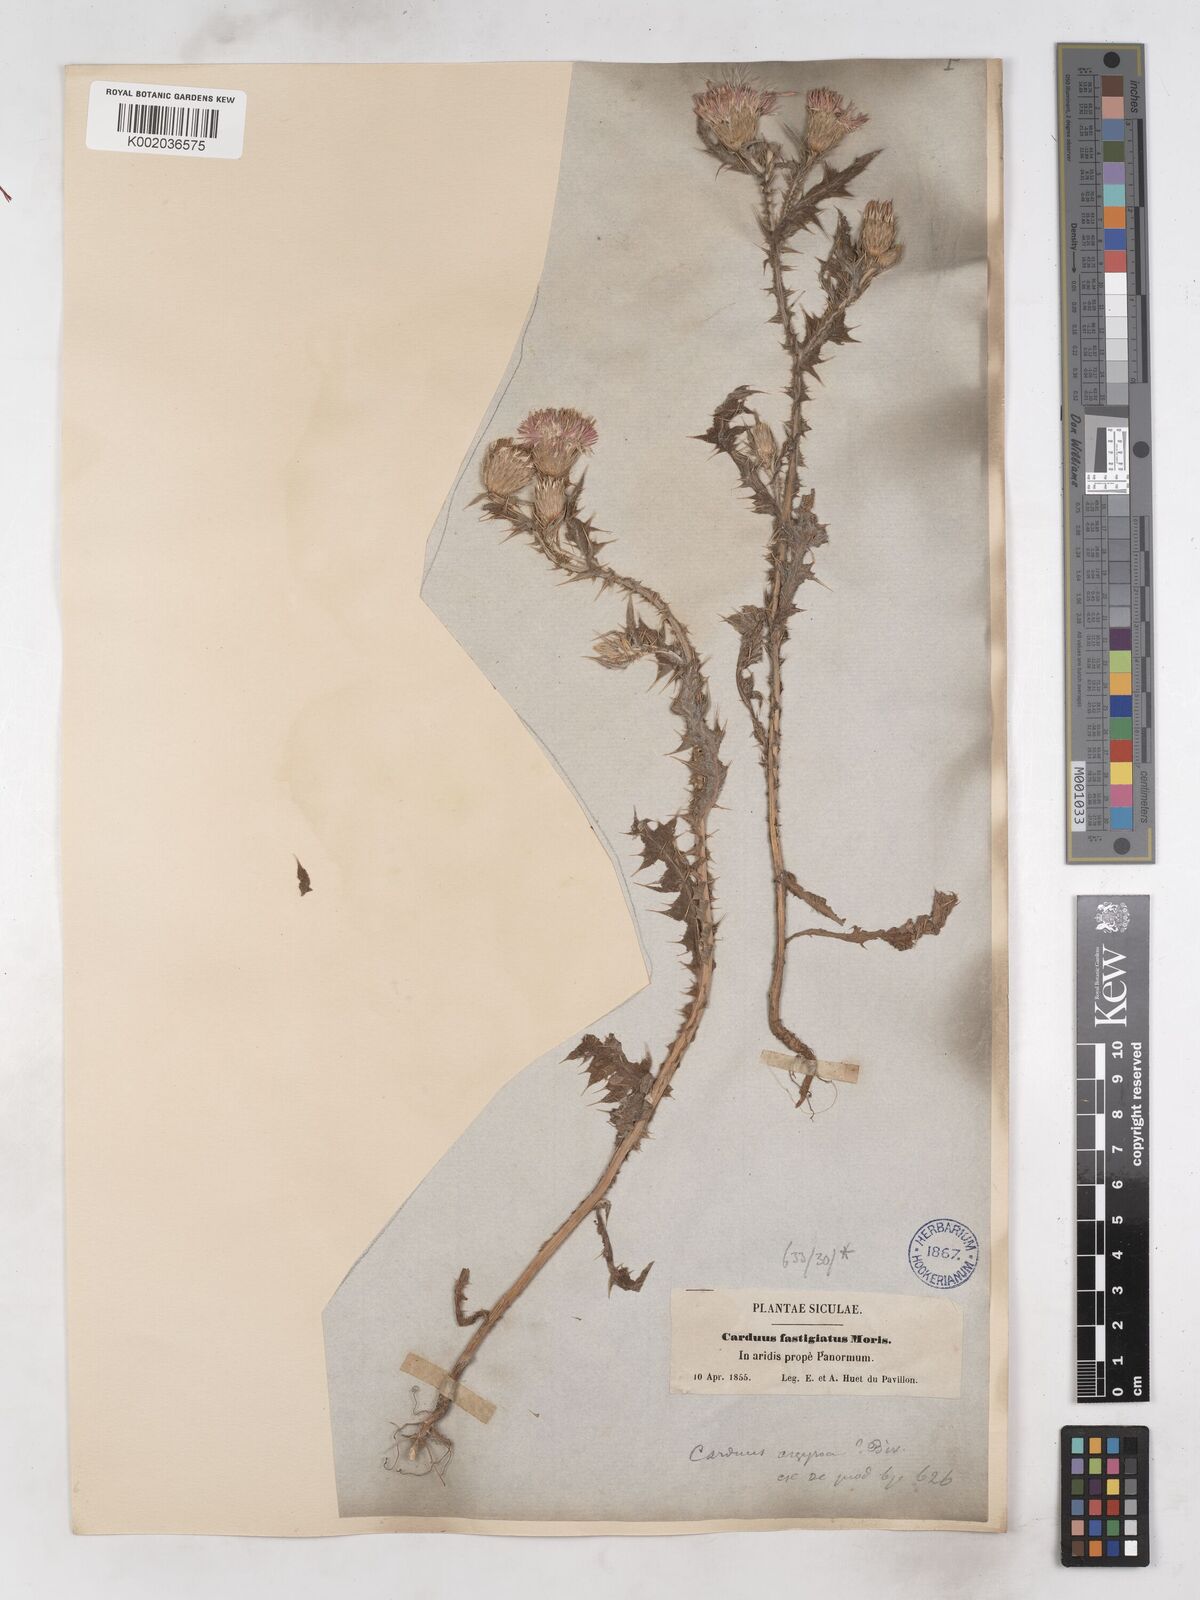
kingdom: Plantae
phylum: Tracheophyta
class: Magnoliopsida
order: Asterales
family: Asteraceae
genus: Carduus
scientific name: Carduus argyroa
